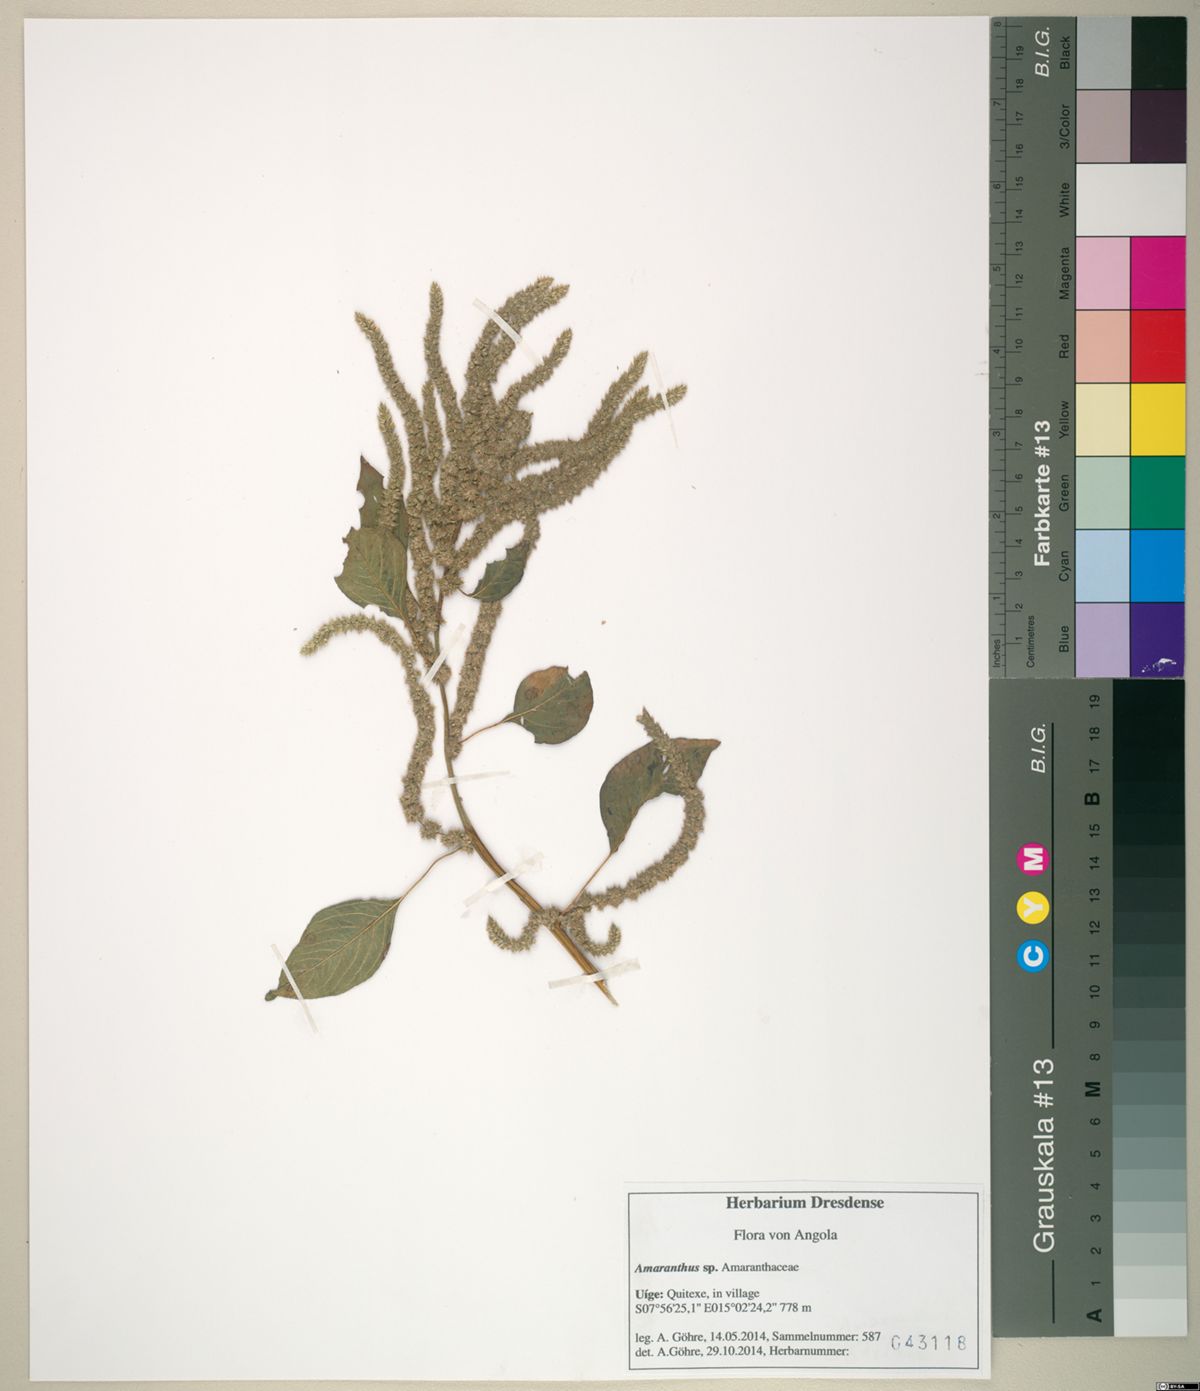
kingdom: Plantae
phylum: Tracheophyta
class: Magnoliopsida
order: Caryophyllales
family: Amaranthaceae
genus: Amaranthus
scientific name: Amaranthus tricolor
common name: Joseph's-coat
